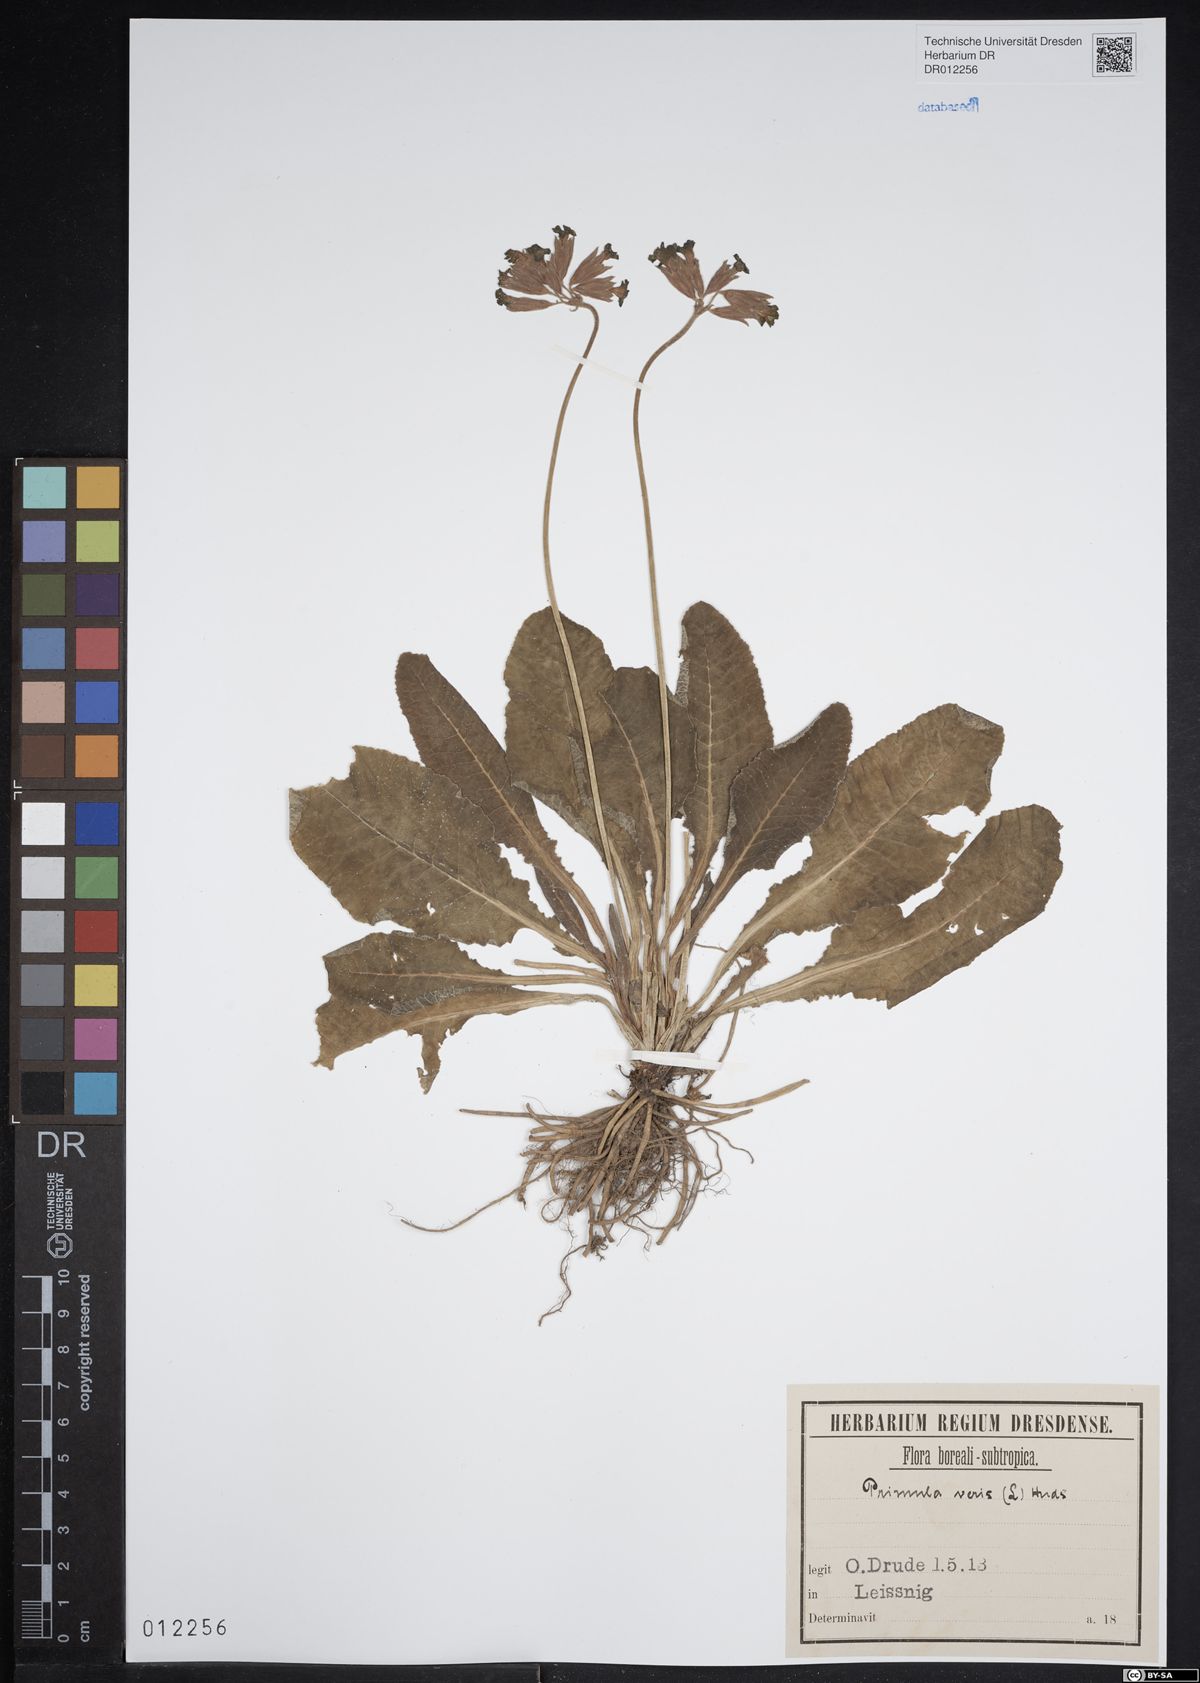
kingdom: Plantae
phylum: Tracheophyta
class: Magnoliopsida
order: Ericales
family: Primulaceae
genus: Primula
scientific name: Primula veris
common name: Cowslip
